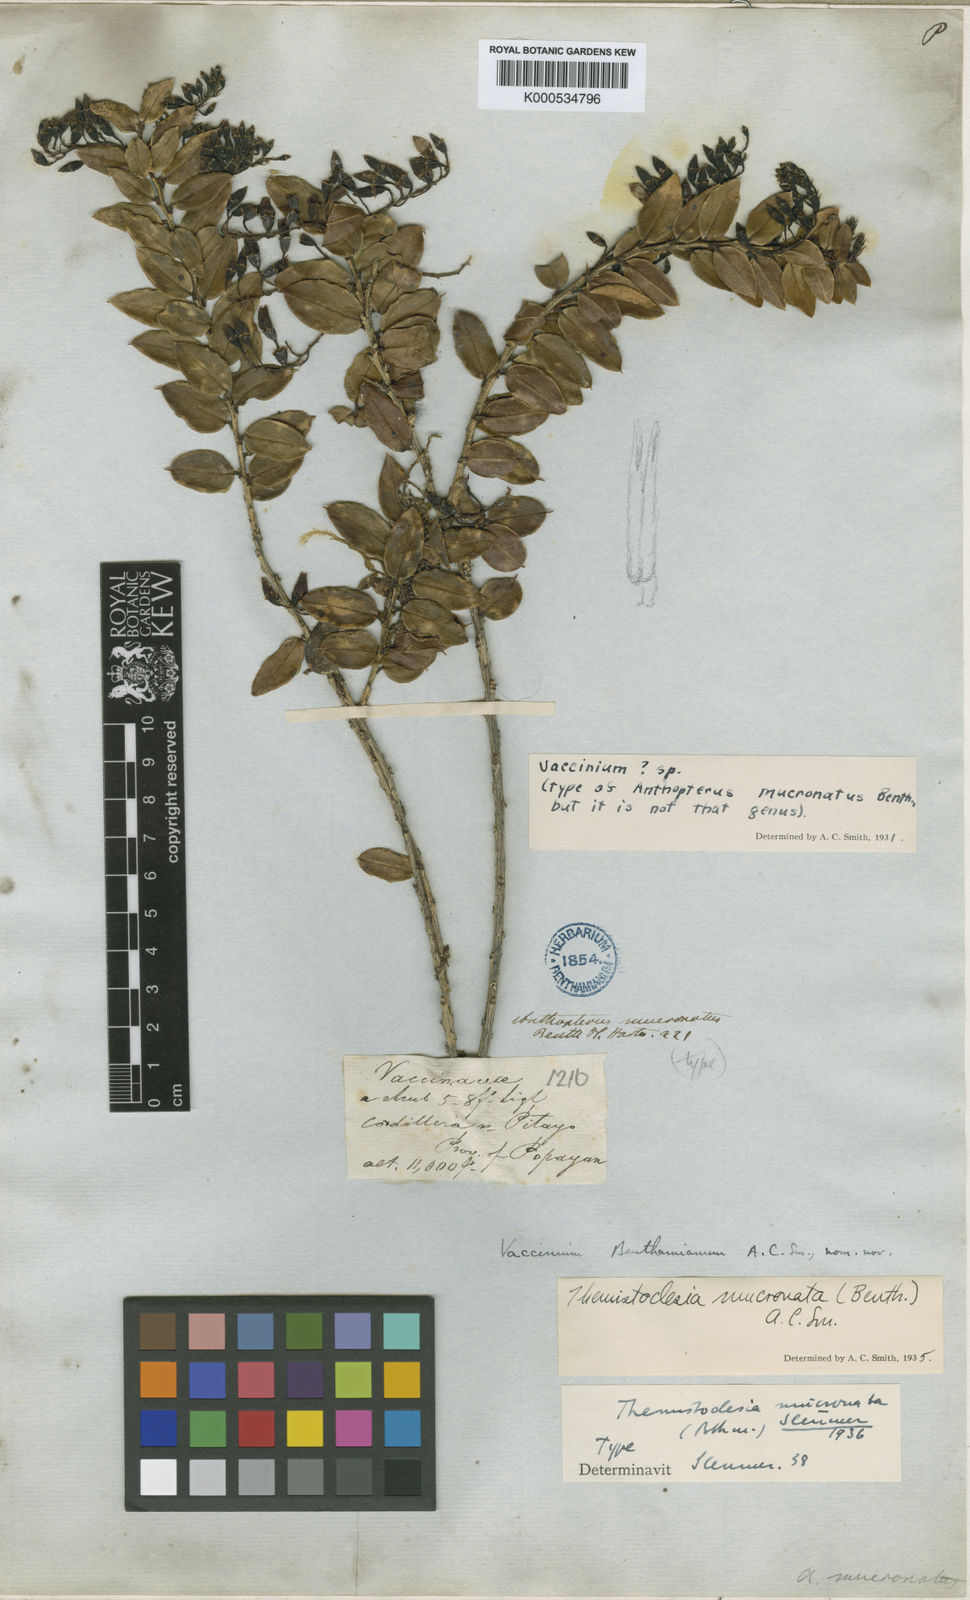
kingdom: Plantae
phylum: Tracheophyta
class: Magnoliopsida
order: Ericales
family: Ericaceae
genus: Themistoclesia
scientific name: Themistoclesia mucronata
